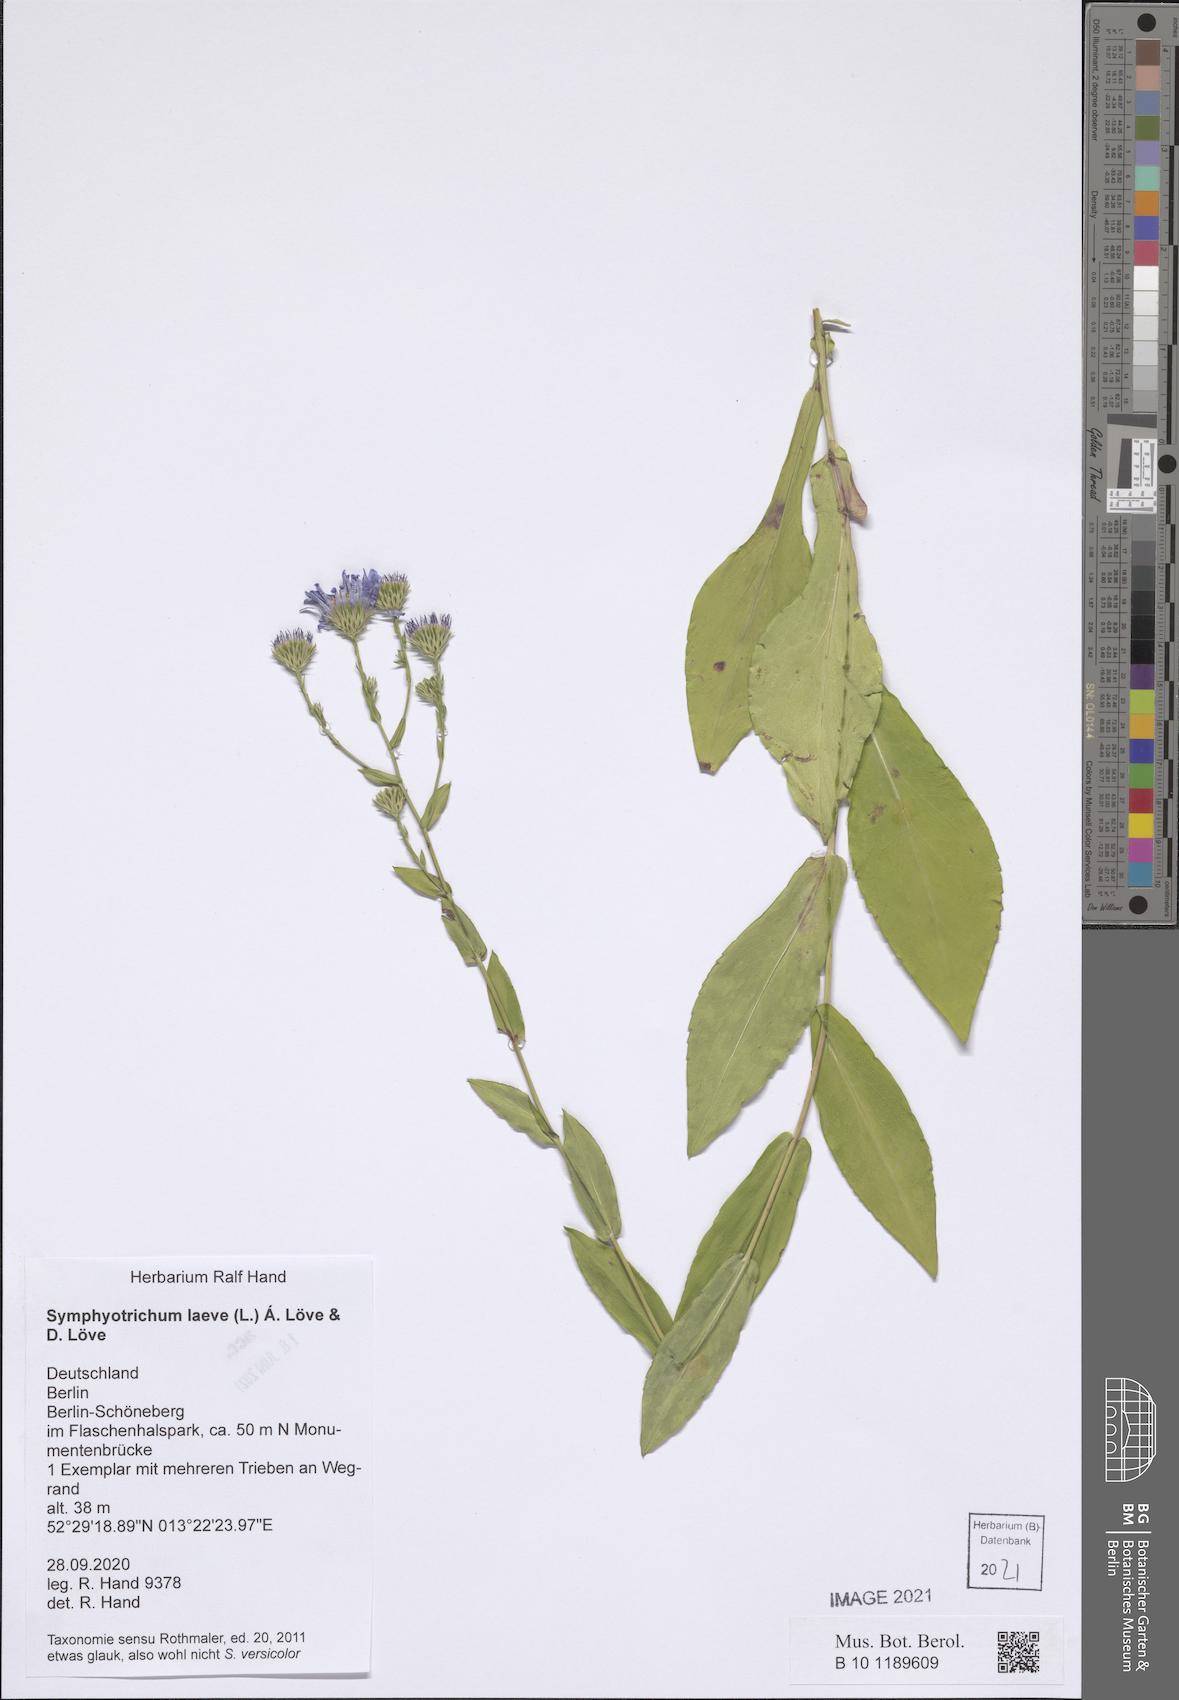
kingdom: Plantae
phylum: Tracheophyta
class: Magnoliopsida
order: Asterales
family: Asteraceae
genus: Symphyotrichum
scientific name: Symphyotrichum laeve
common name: Glaucous aster
